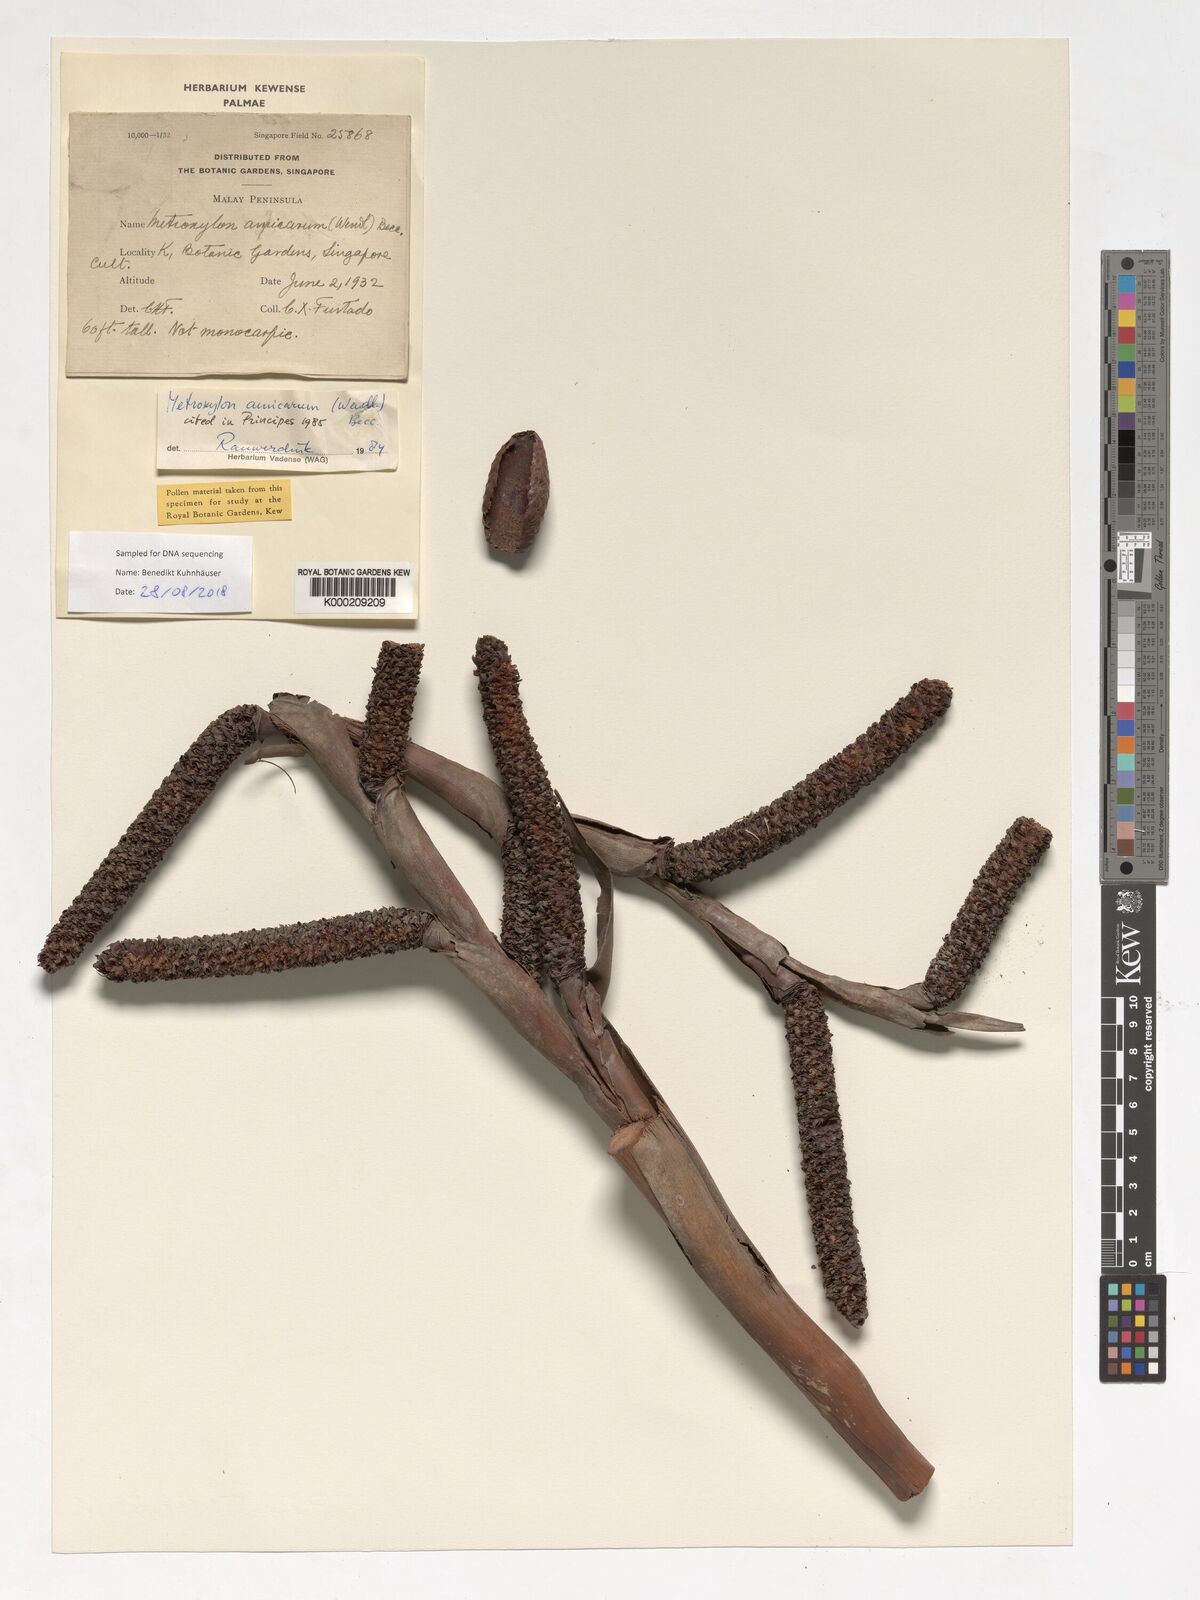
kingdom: Plantae
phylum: Tracheophyta
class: Liliopsida
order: Arecales
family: Arecaceae
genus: Metroxylon
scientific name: Metroxylon amicarum
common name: Caroline ivory nut
